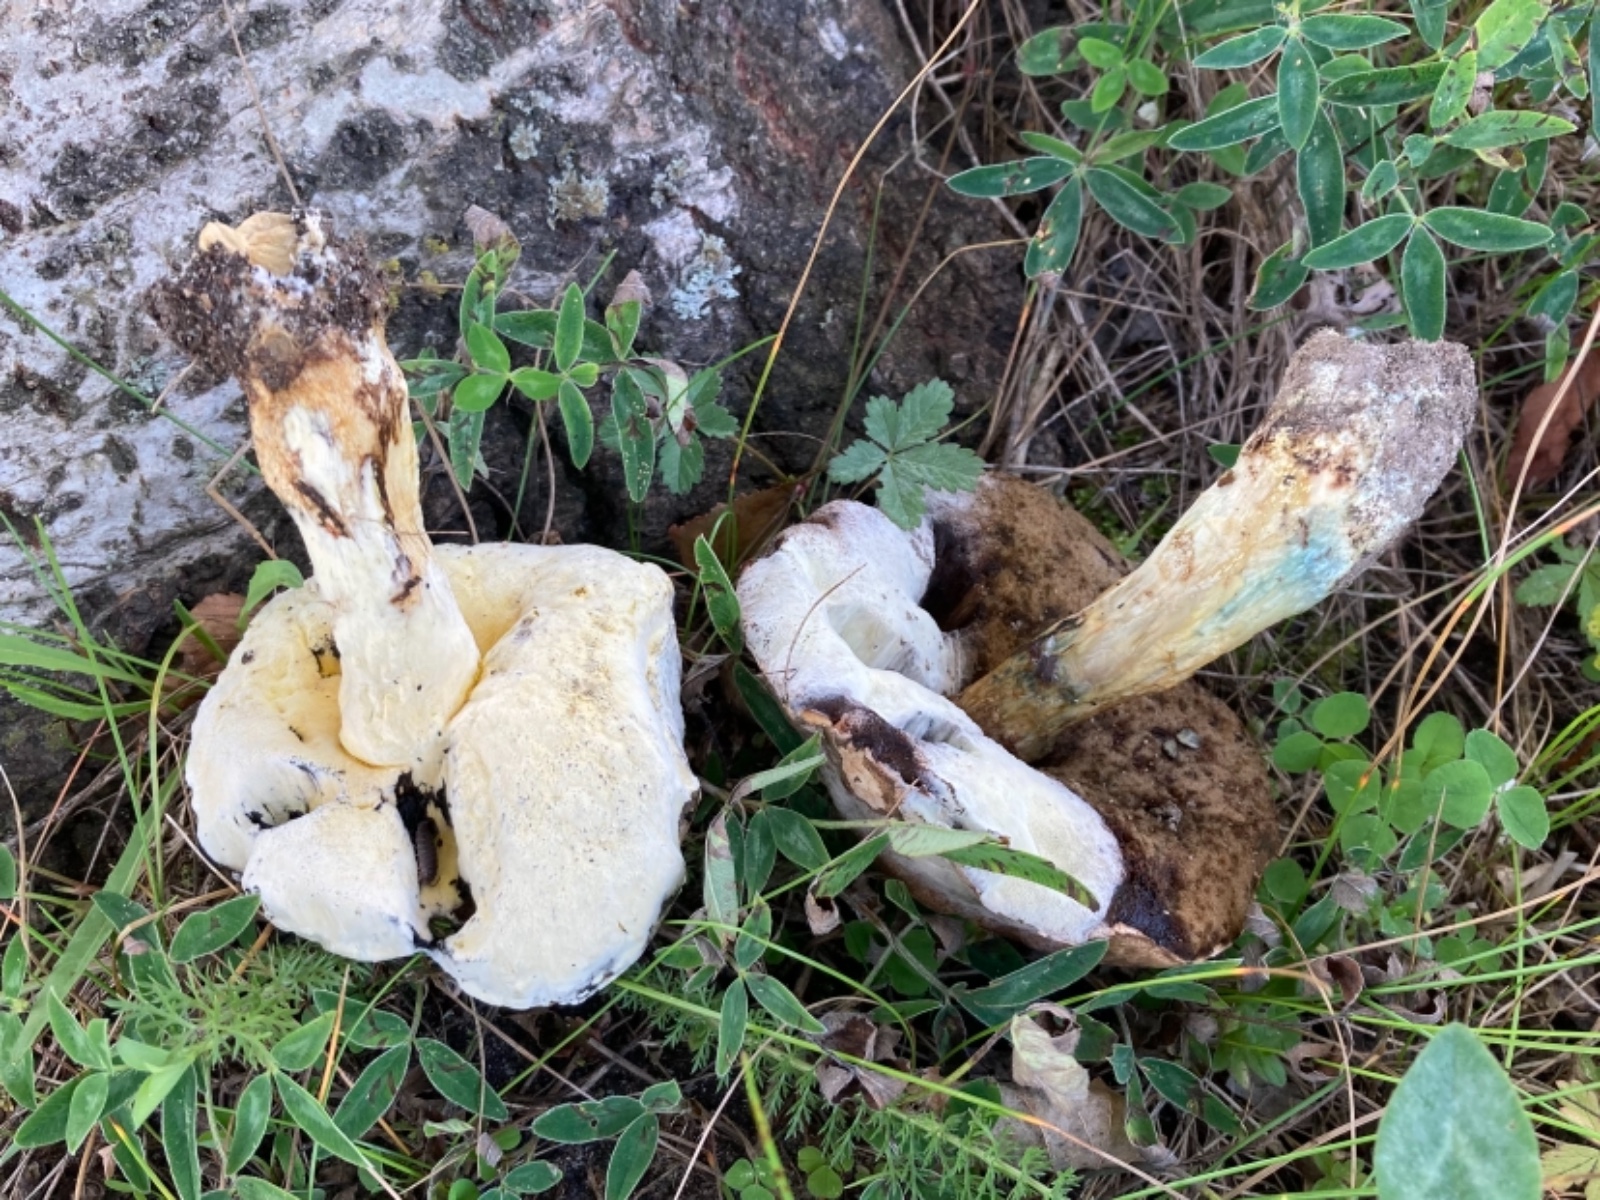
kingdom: Fungi
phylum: Ascomycota
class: Sordariomycetes
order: Hypocreales
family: Hypocreaceae
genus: Sepedonium
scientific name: Sepedonium laevigatum
